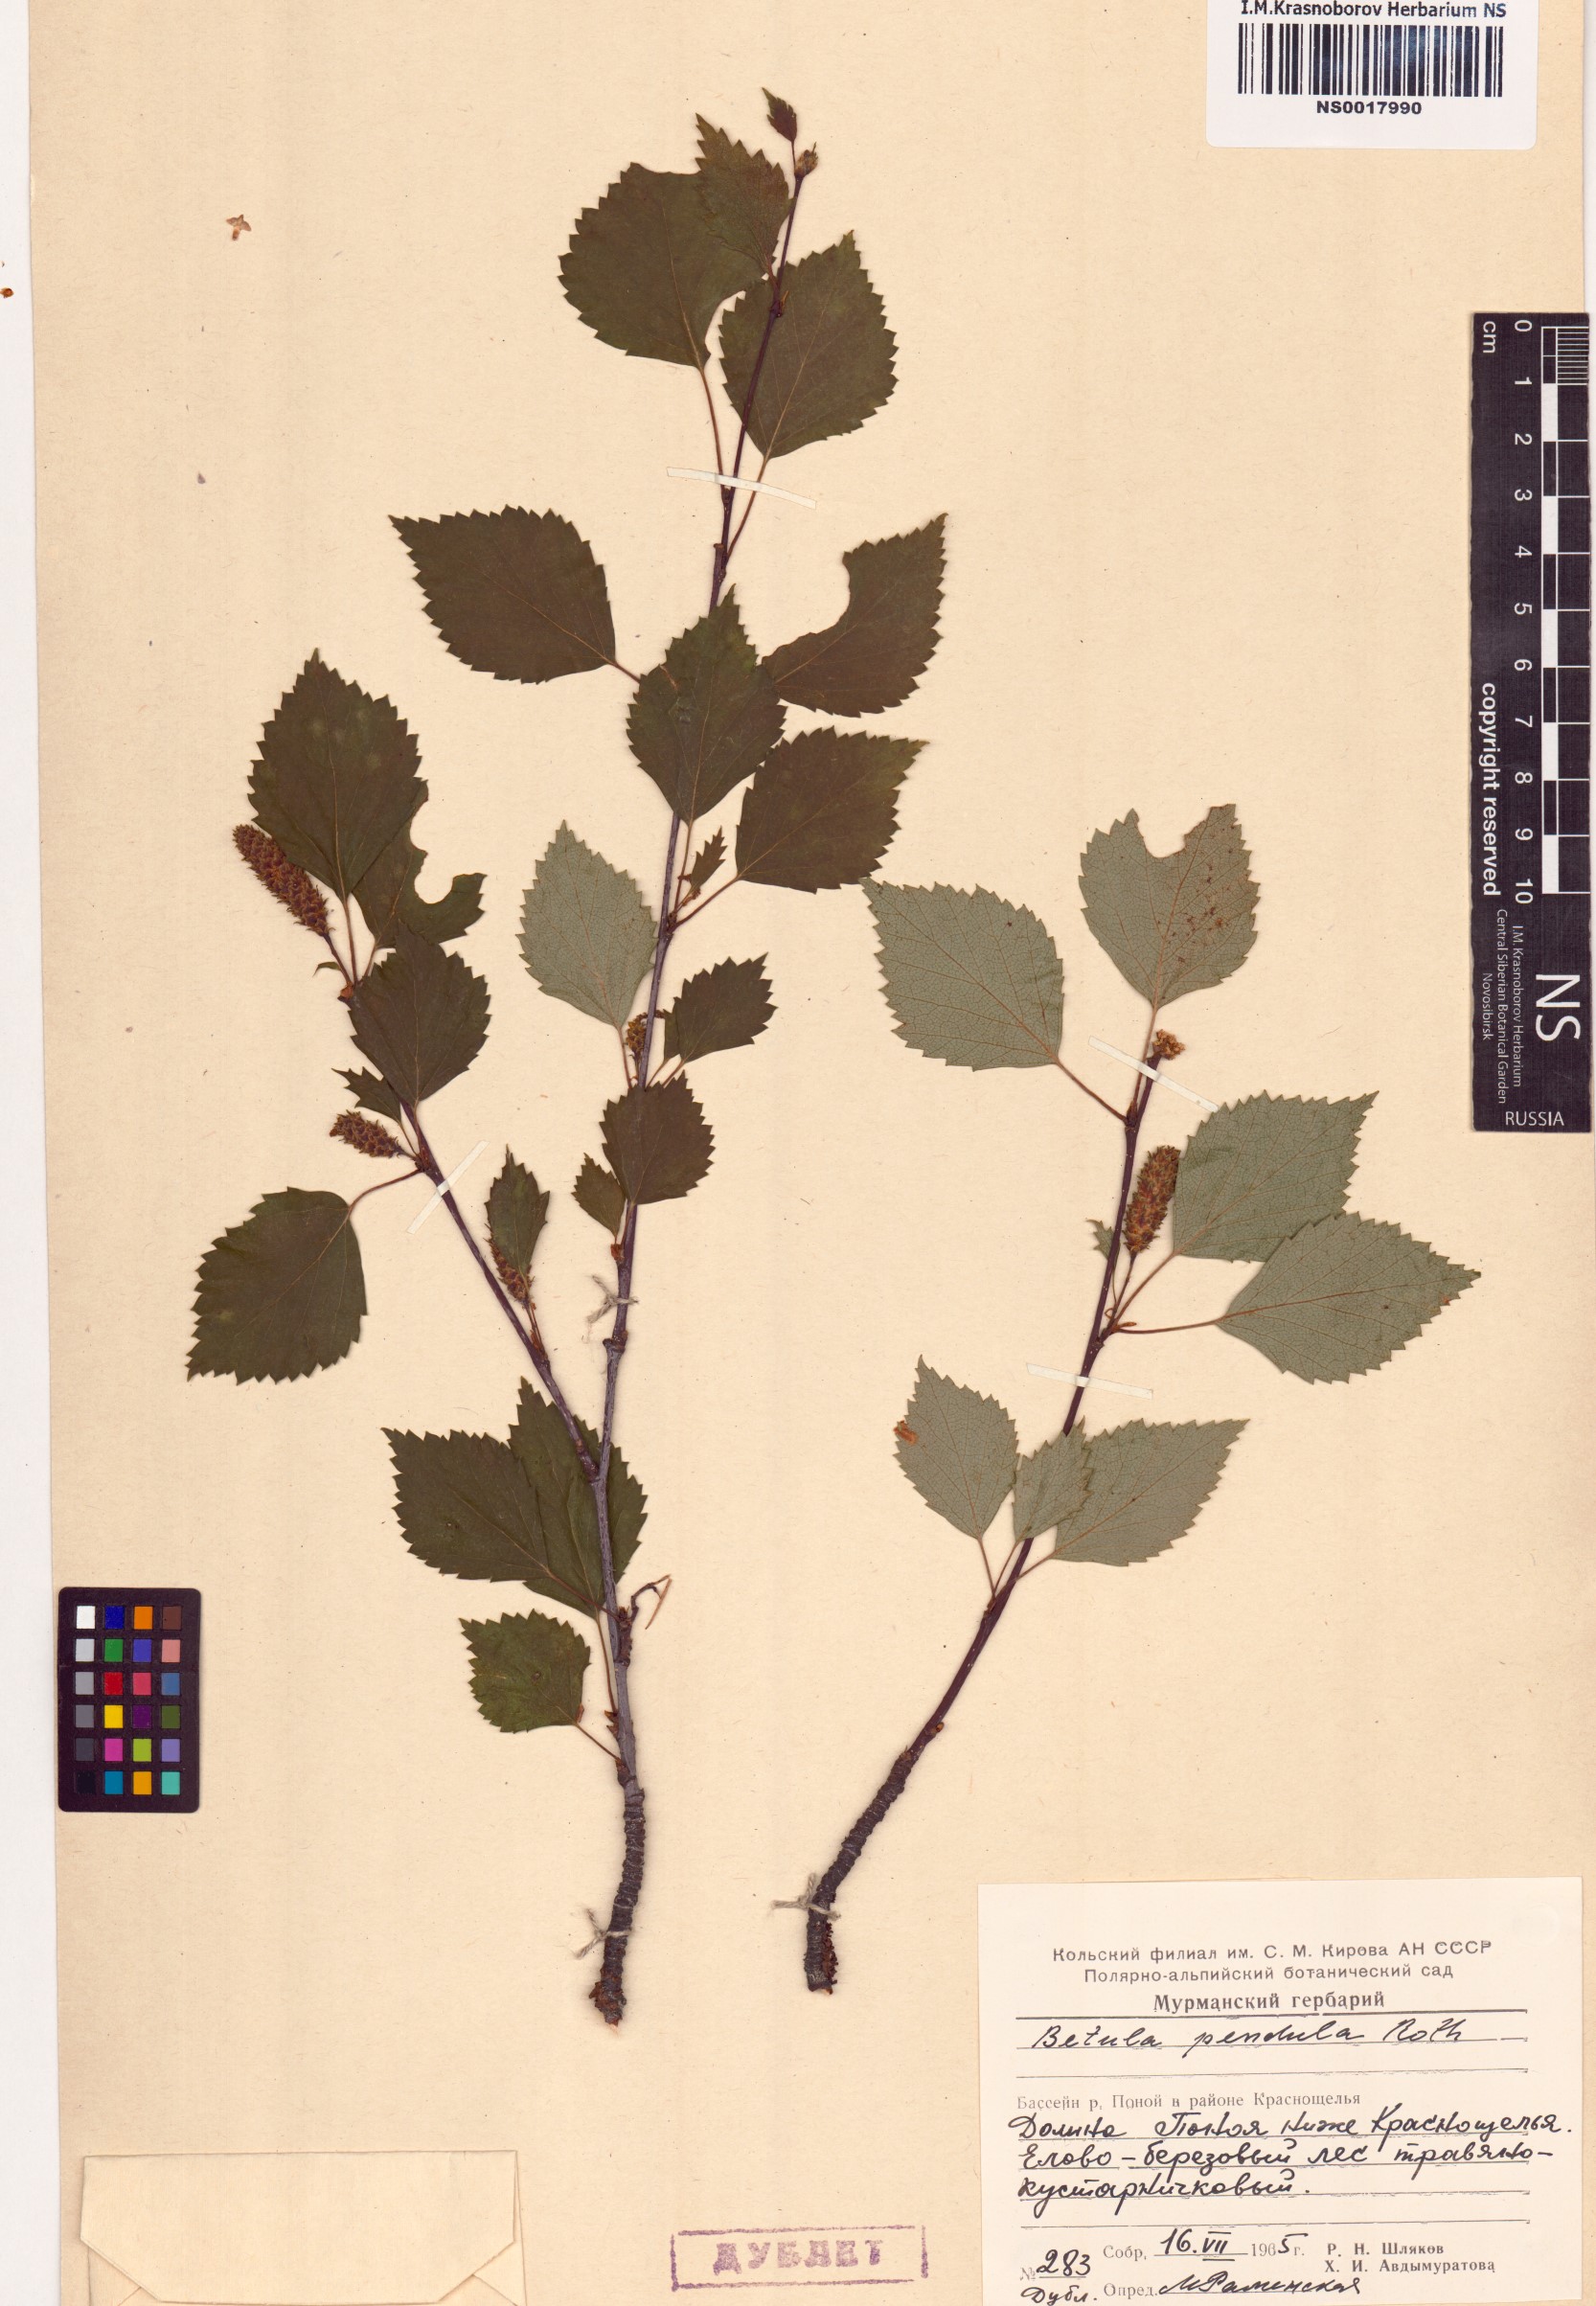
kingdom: Plantae
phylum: Tracheophyta
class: Magnoliopsida
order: Fagales
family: Betulaceae
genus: Betula
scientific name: Betula pendula
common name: Silver birch
